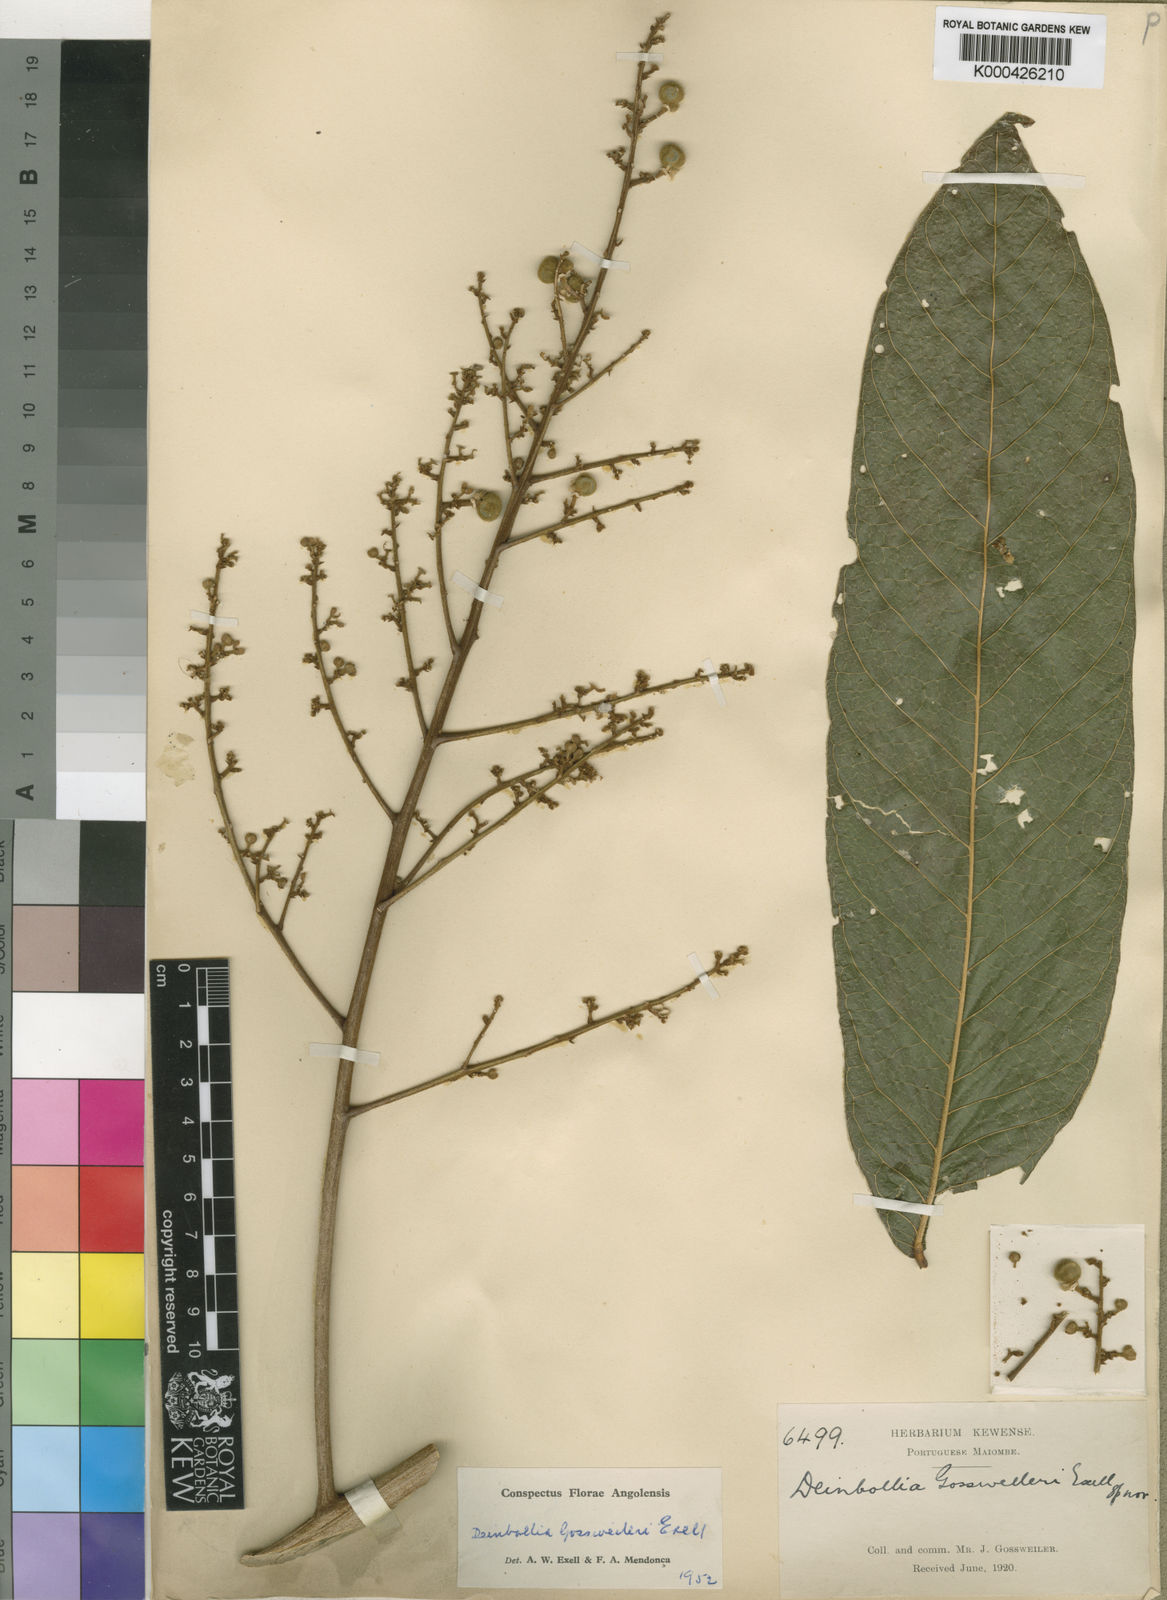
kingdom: Plantae
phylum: Tracheophyta
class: Magnoliopsida
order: Sapindales
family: Sapindaceae
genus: Deinbollia
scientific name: Deinbollia gossweileri
